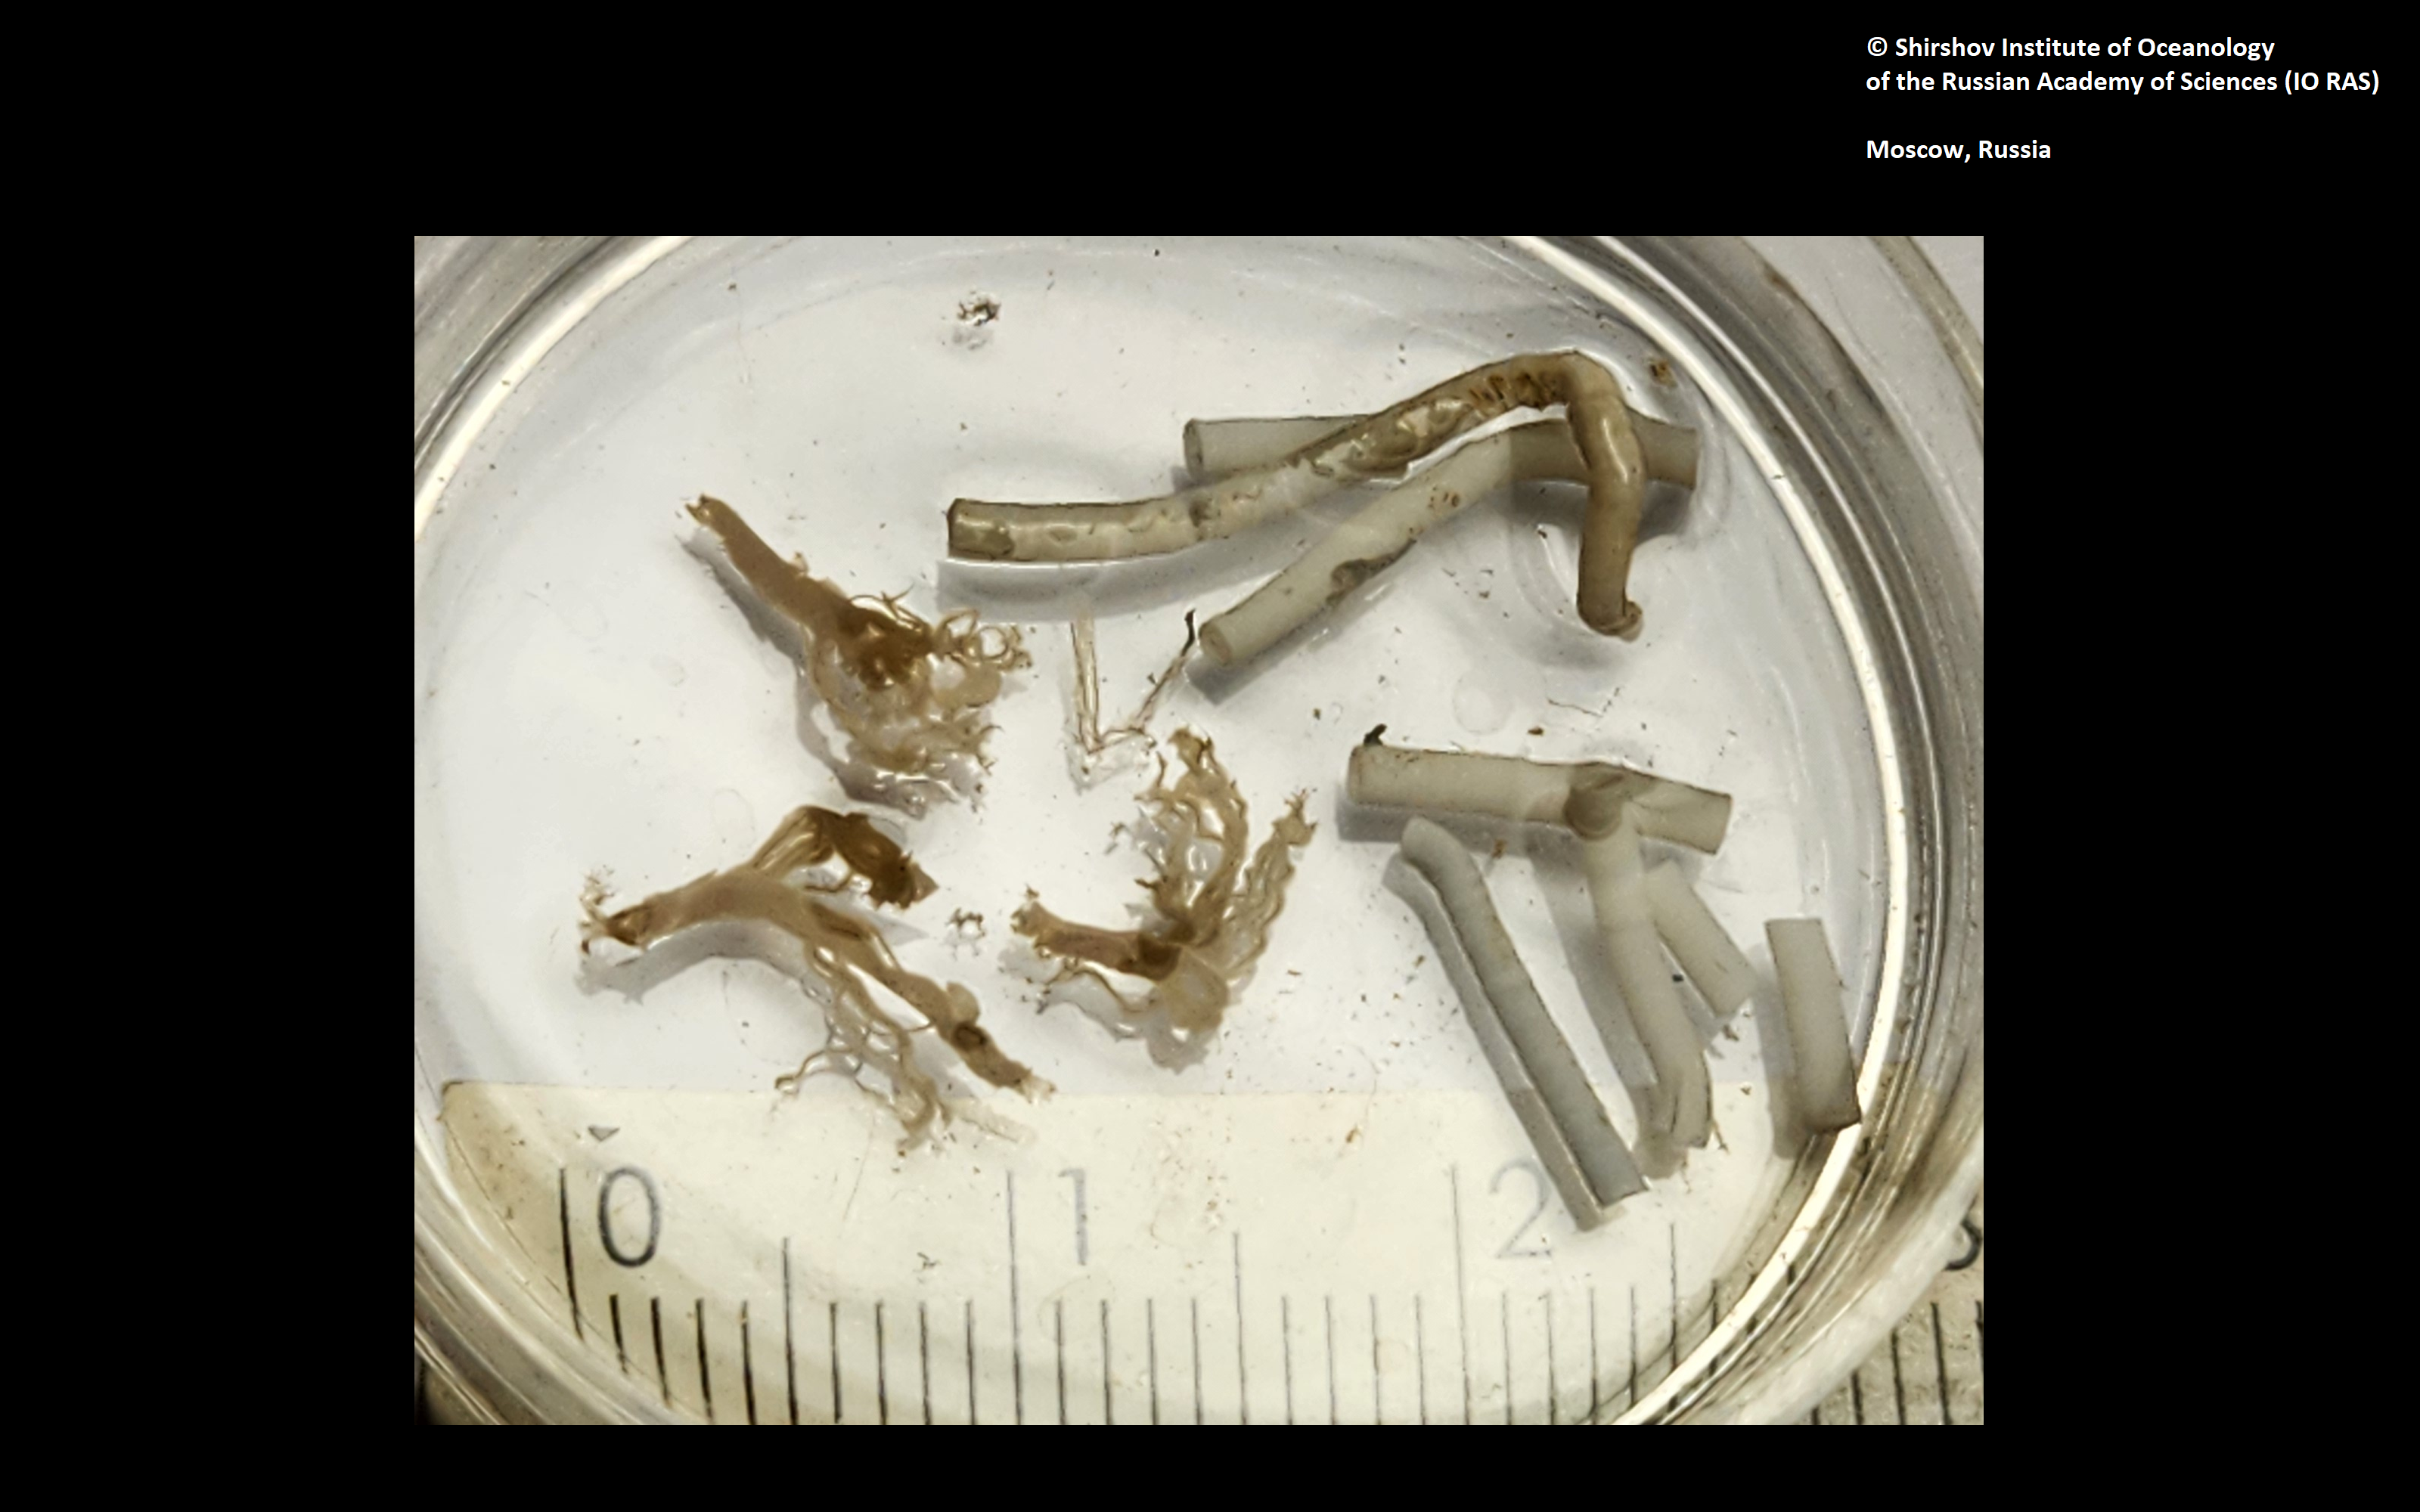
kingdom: Animalia
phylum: Annelida
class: Polychaeta
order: Sabellida
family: Serpulidae
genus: Hyalopomatus
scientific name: Hyalopomatus mironovi
